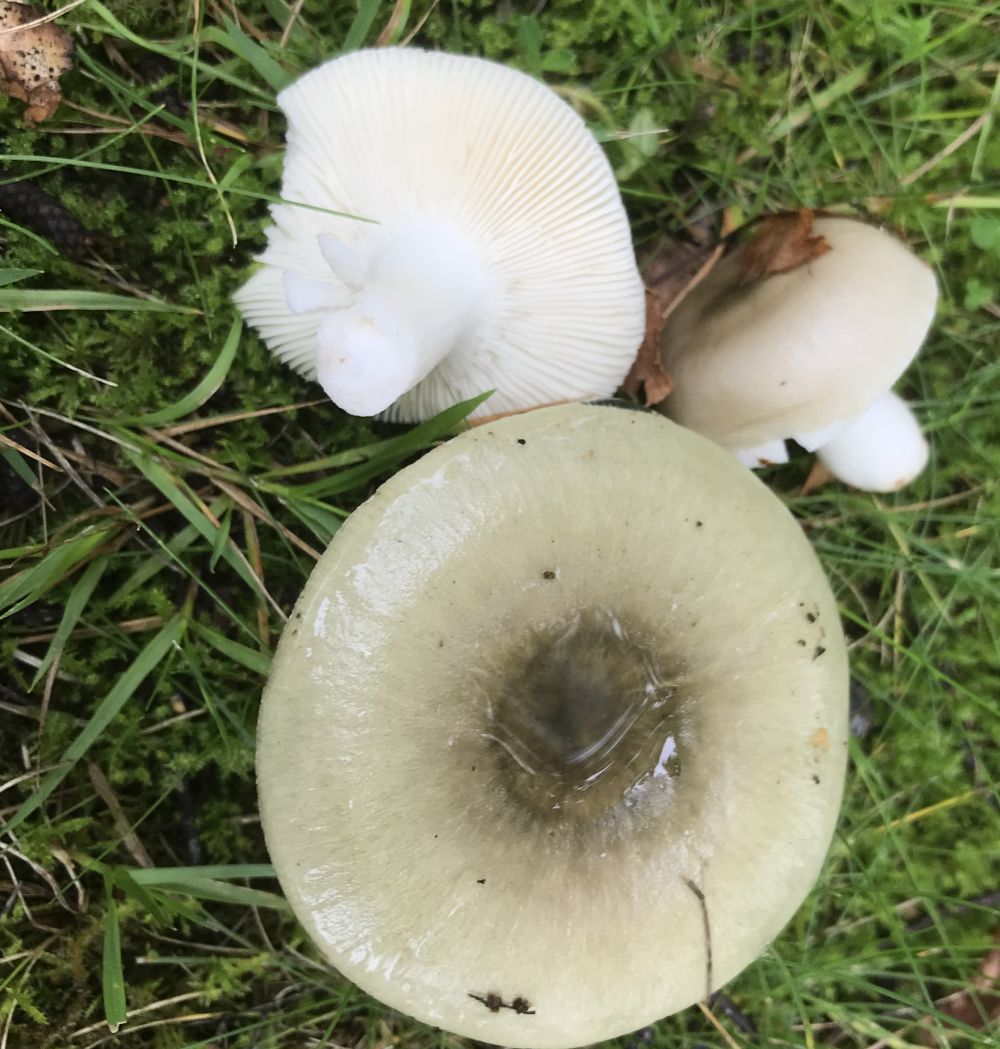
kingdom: Fungi
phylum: Basidiomycota
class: Agaricomycetes
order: Russulales
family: Russulaceae
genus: Russula
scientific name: Russula aeruginea
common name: græsgrøn skørhat
